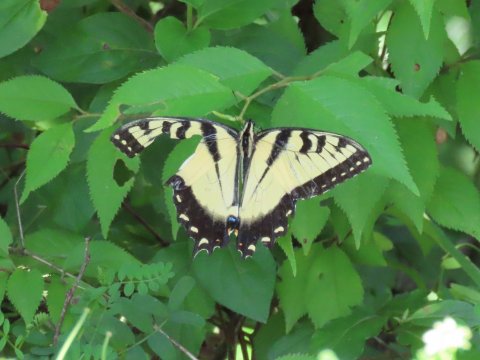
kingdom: Animalia
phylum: Arthropoda
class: Insecta
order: Lepidoptera
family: Papilionidae
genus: Pterourus
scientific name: Pterourus glaucus
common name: Eastern Tiger Swallowtail
